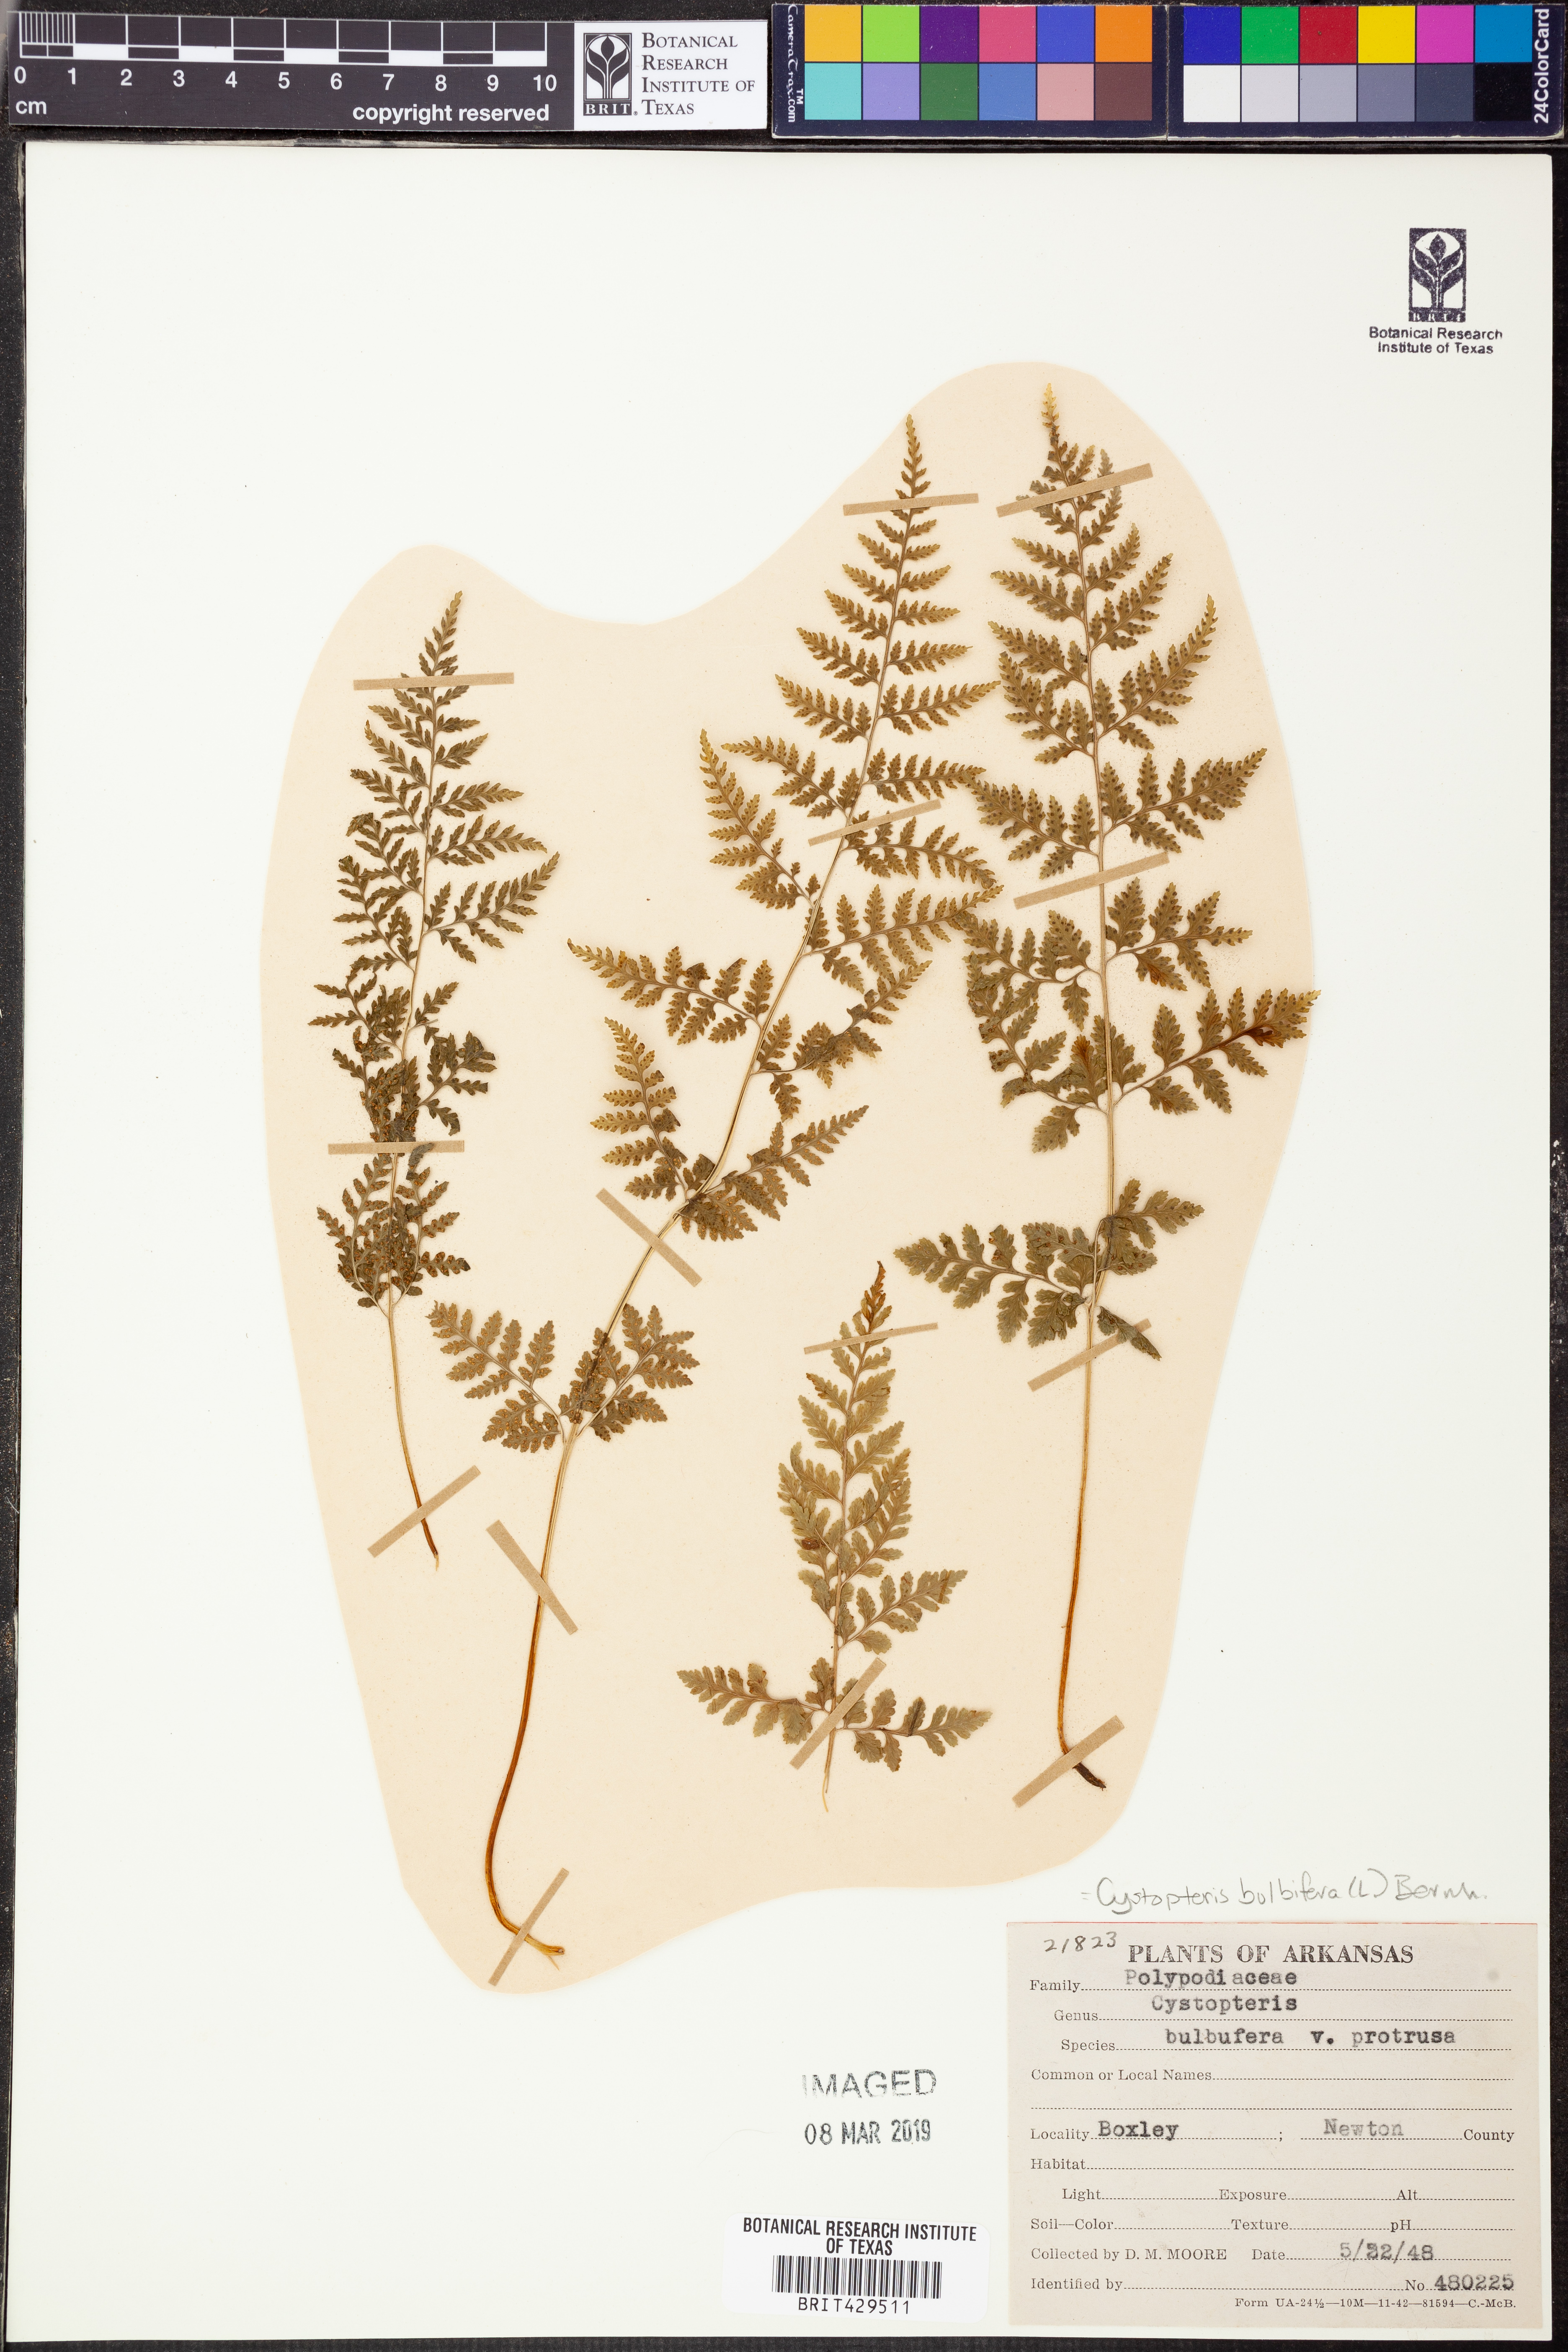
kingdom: Plantae
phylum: Tracheophyta
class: Polypodiopsida
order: Polypodiales
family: Cystopteridaceae
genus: Cystopteris
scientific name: Cystopteris bulbifera
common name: Bulblet bladder fern
